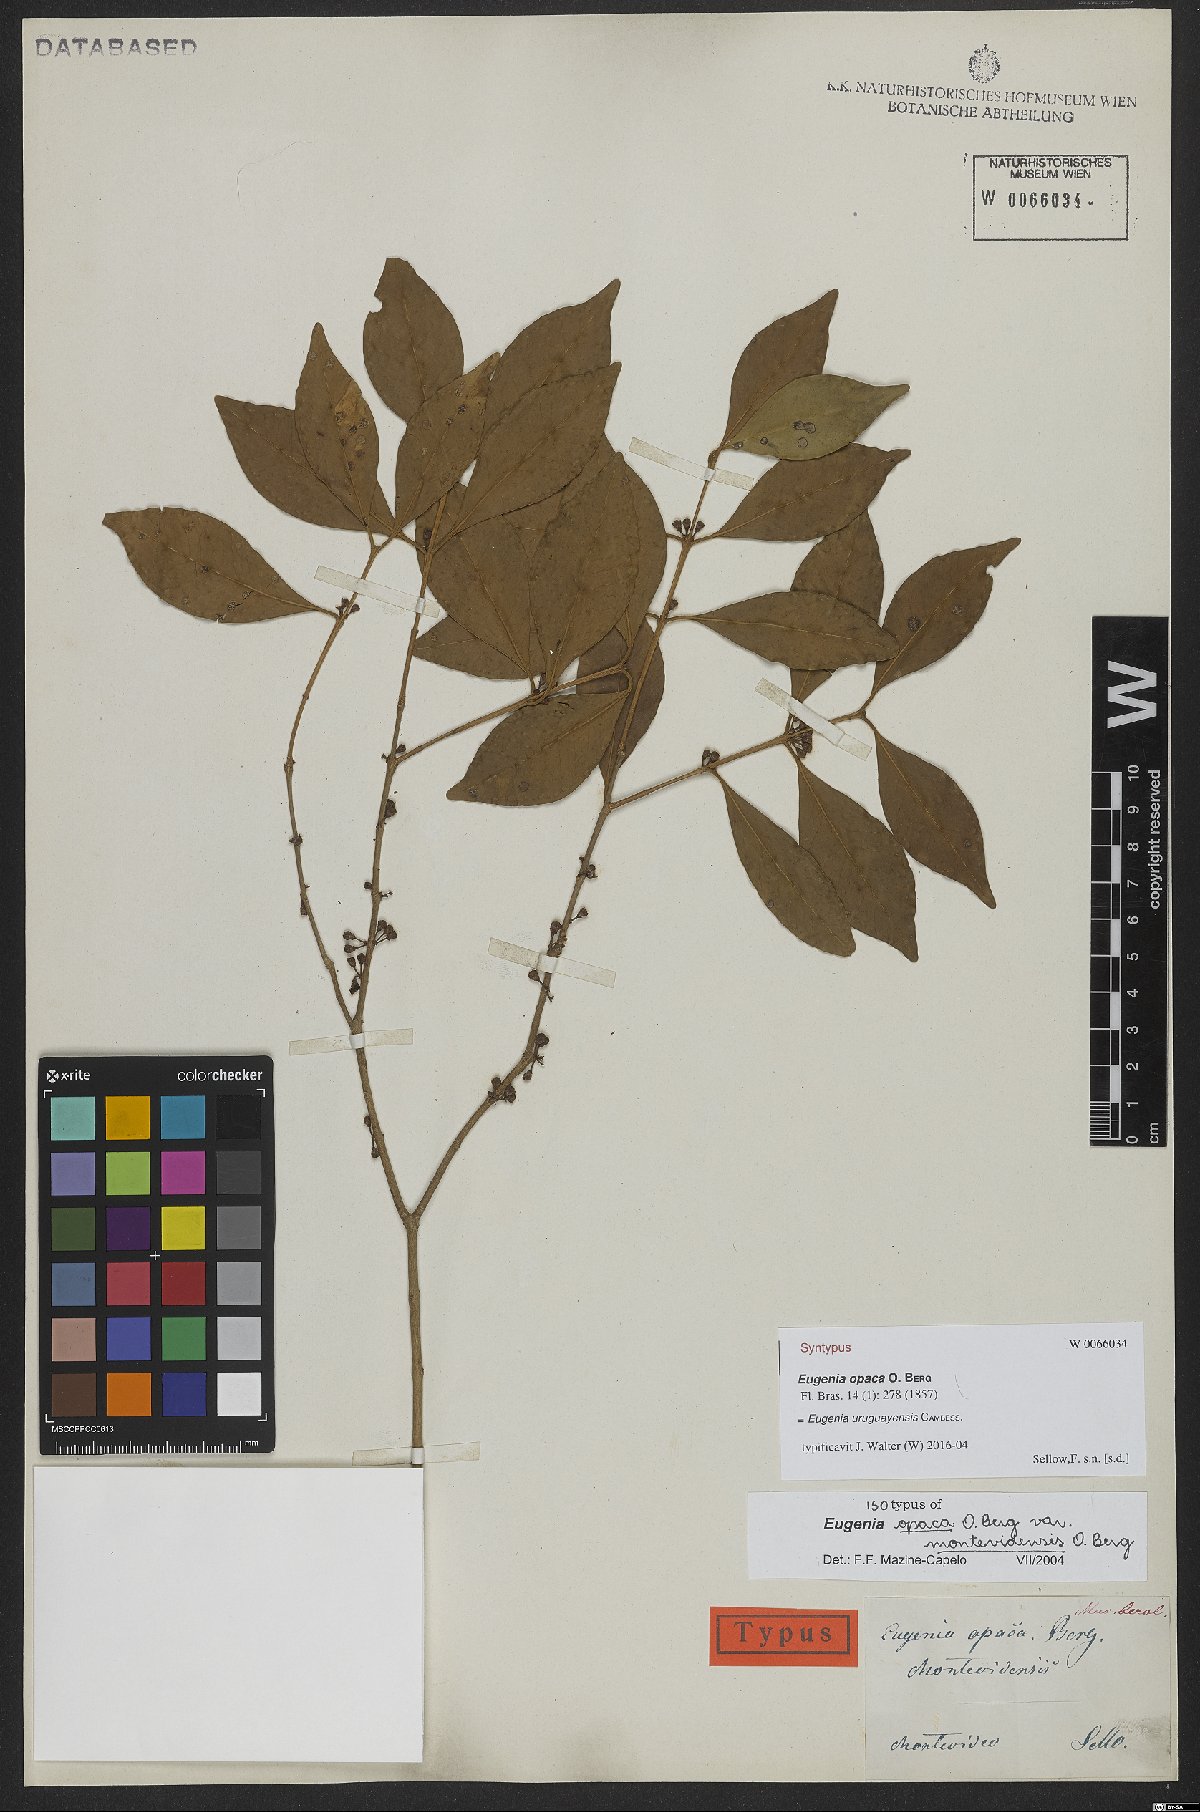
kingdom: Plantae
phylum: Tracheophyta
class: Magnoliopsida
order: Myrtales
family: Myrtaceae
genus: Eugenia
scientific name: Eugenia uruguayensis
